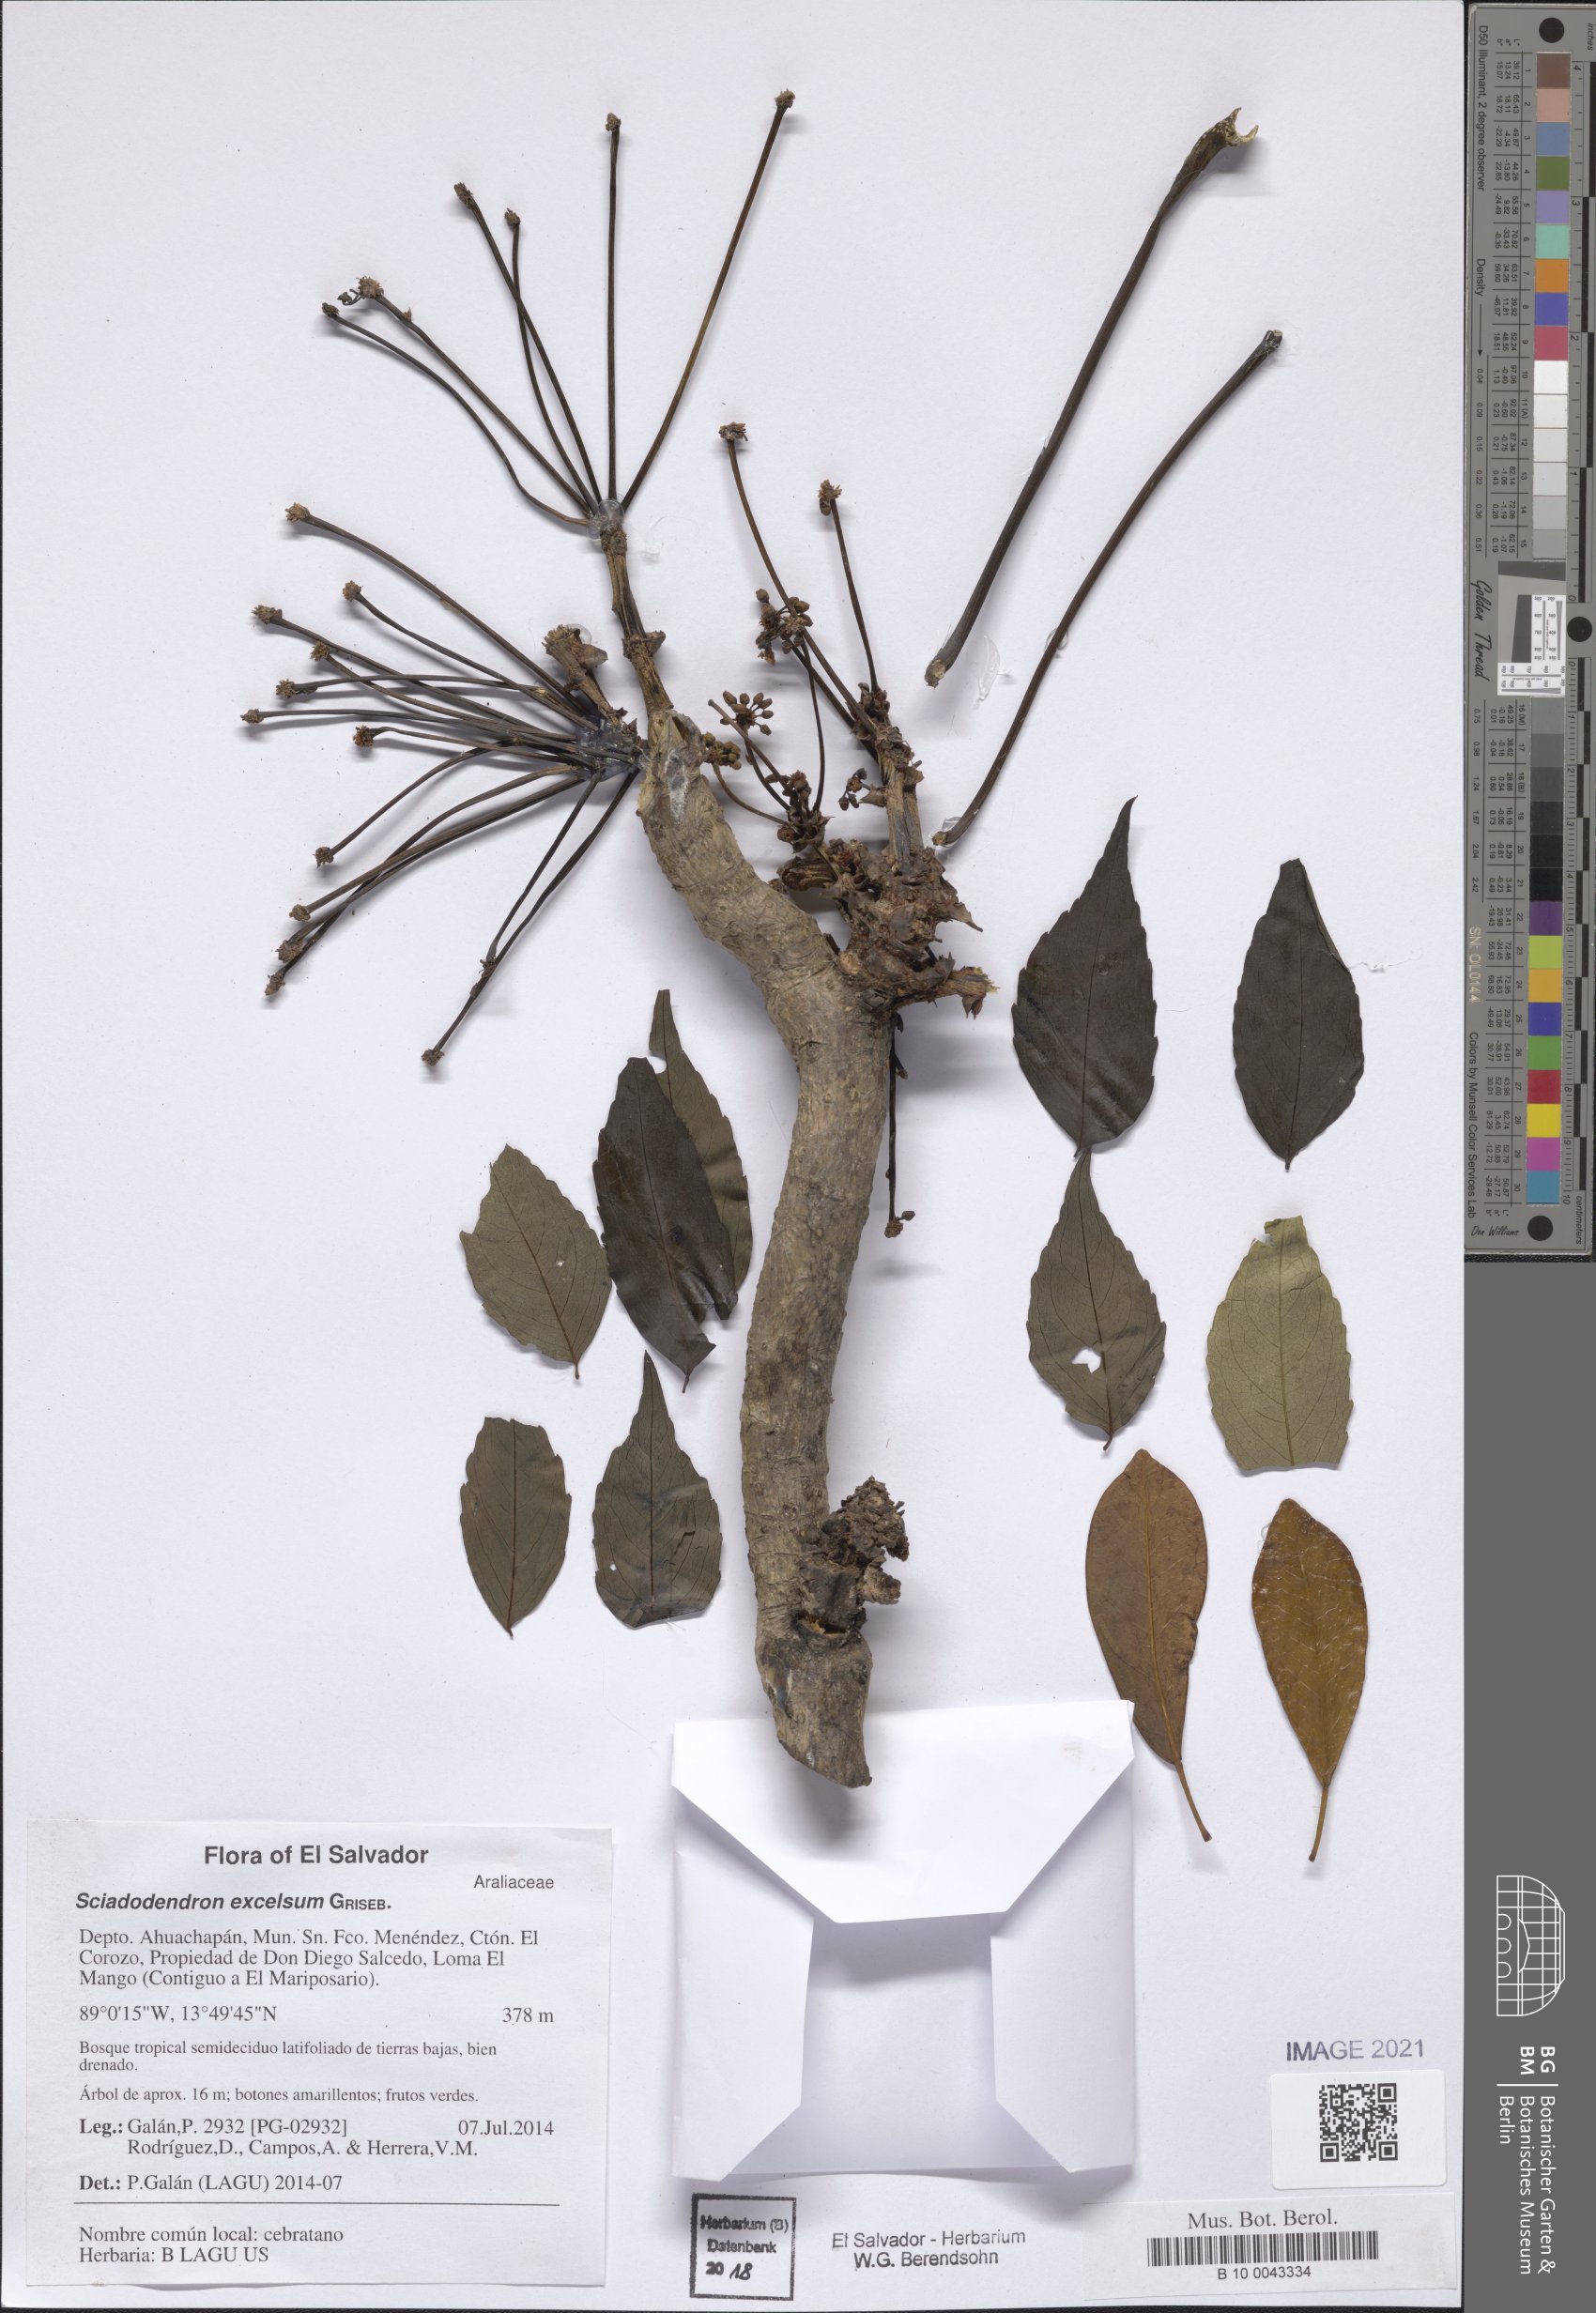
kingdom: Plantae
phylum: Tracheophyta
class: Magnoliopsida
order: Apiales
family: Araliaceae
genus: Aralia
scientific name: Aralia excelsa
